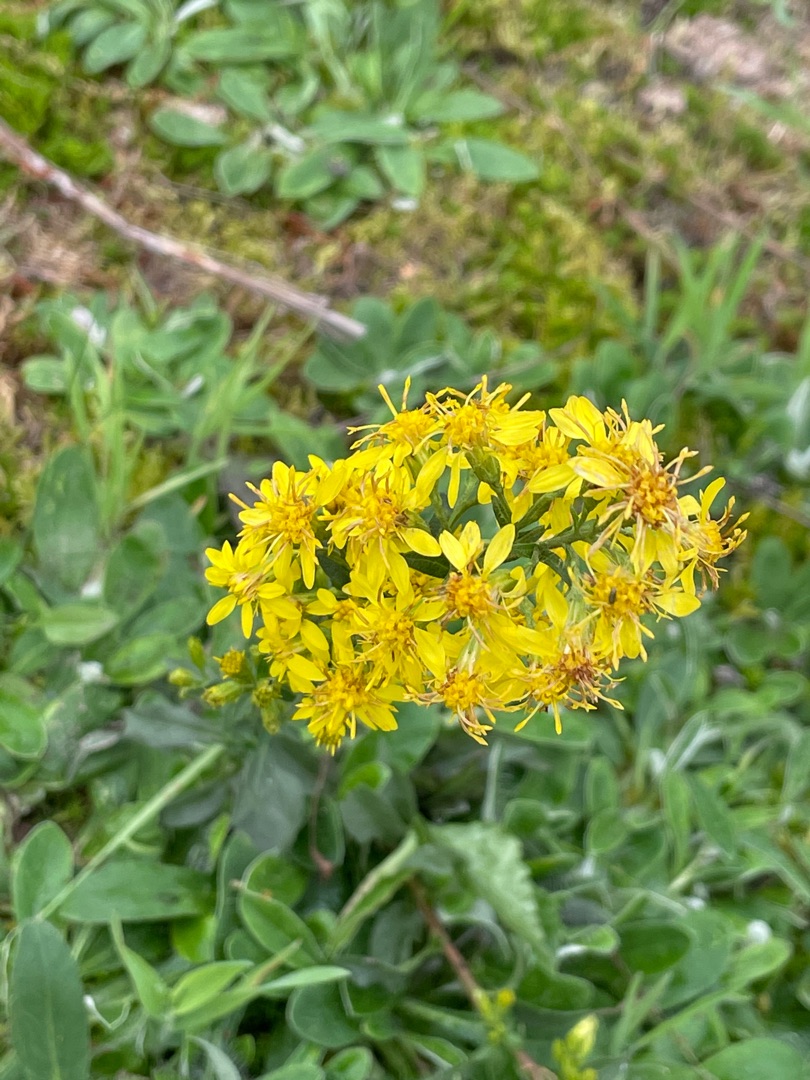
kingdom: Plantae
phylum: Tracheophyta
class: Magnoliopsida
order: Asterales
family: Asteraceae
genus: Solidago
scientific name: Solidago virgaurea
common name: Almindelig gyldenris
